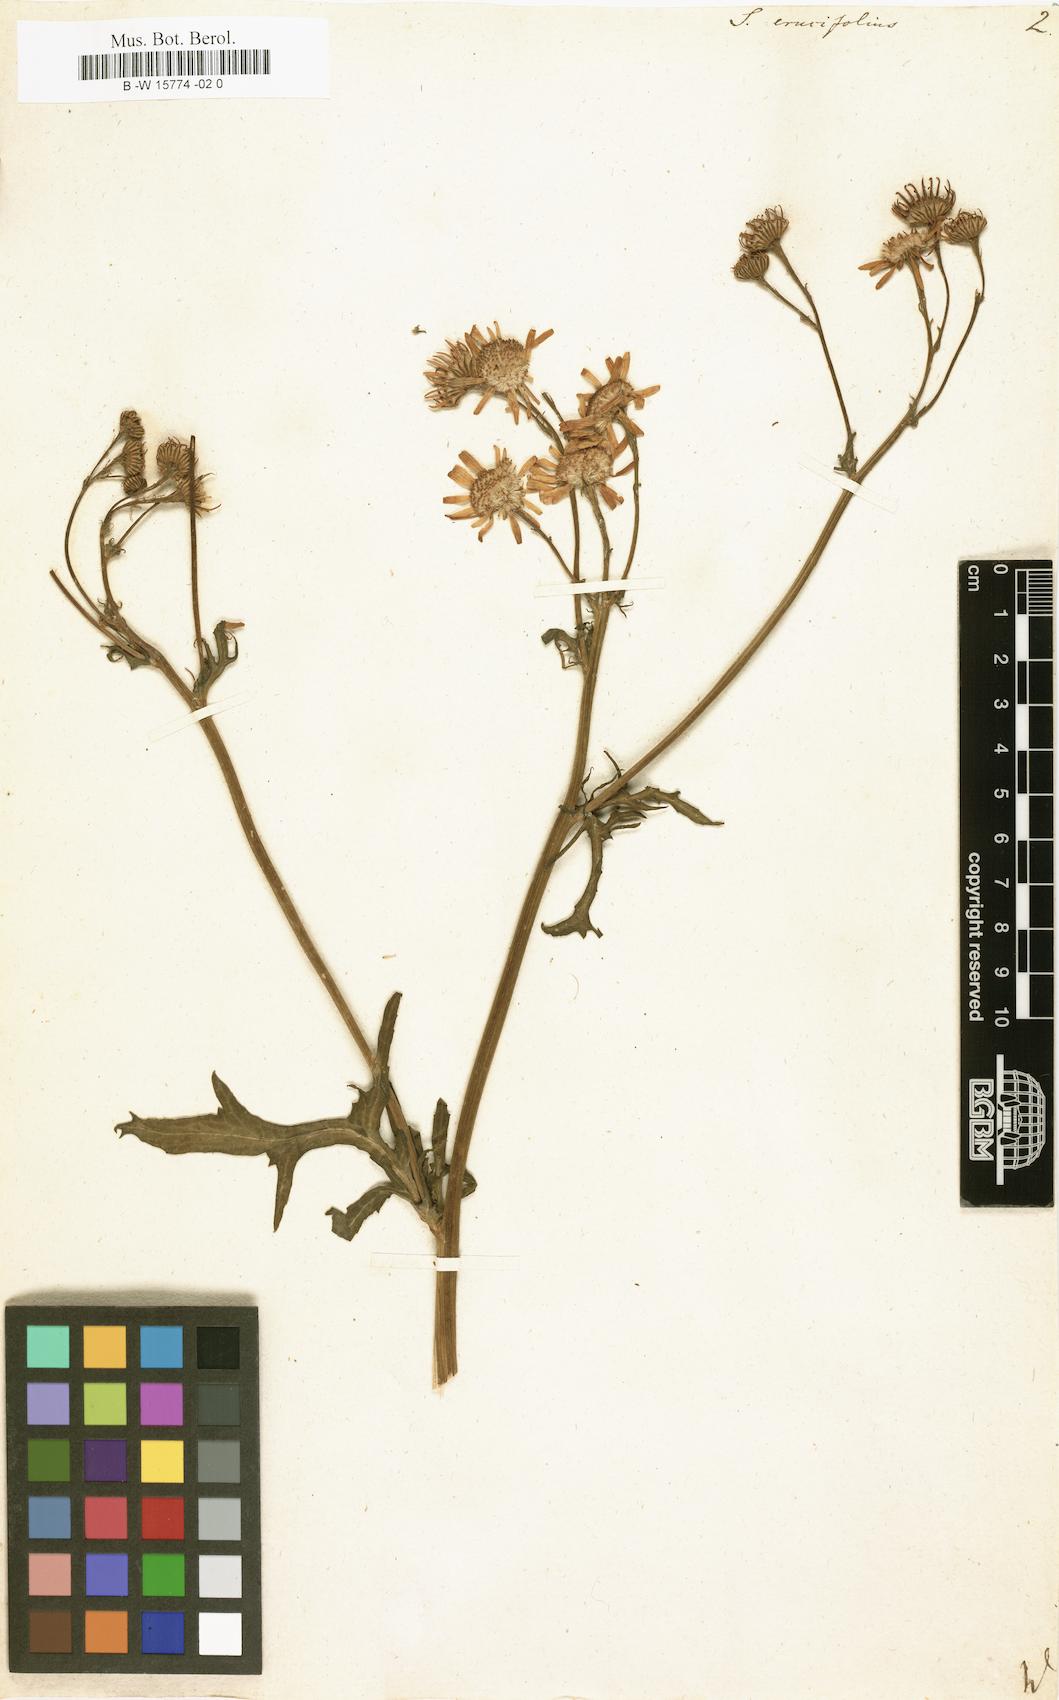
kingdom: Plantae
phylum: Tracheophyta
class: Magnoliopsida
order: Asterales
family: Asteraceae
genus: Jacobaea
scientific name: Jacobaea
